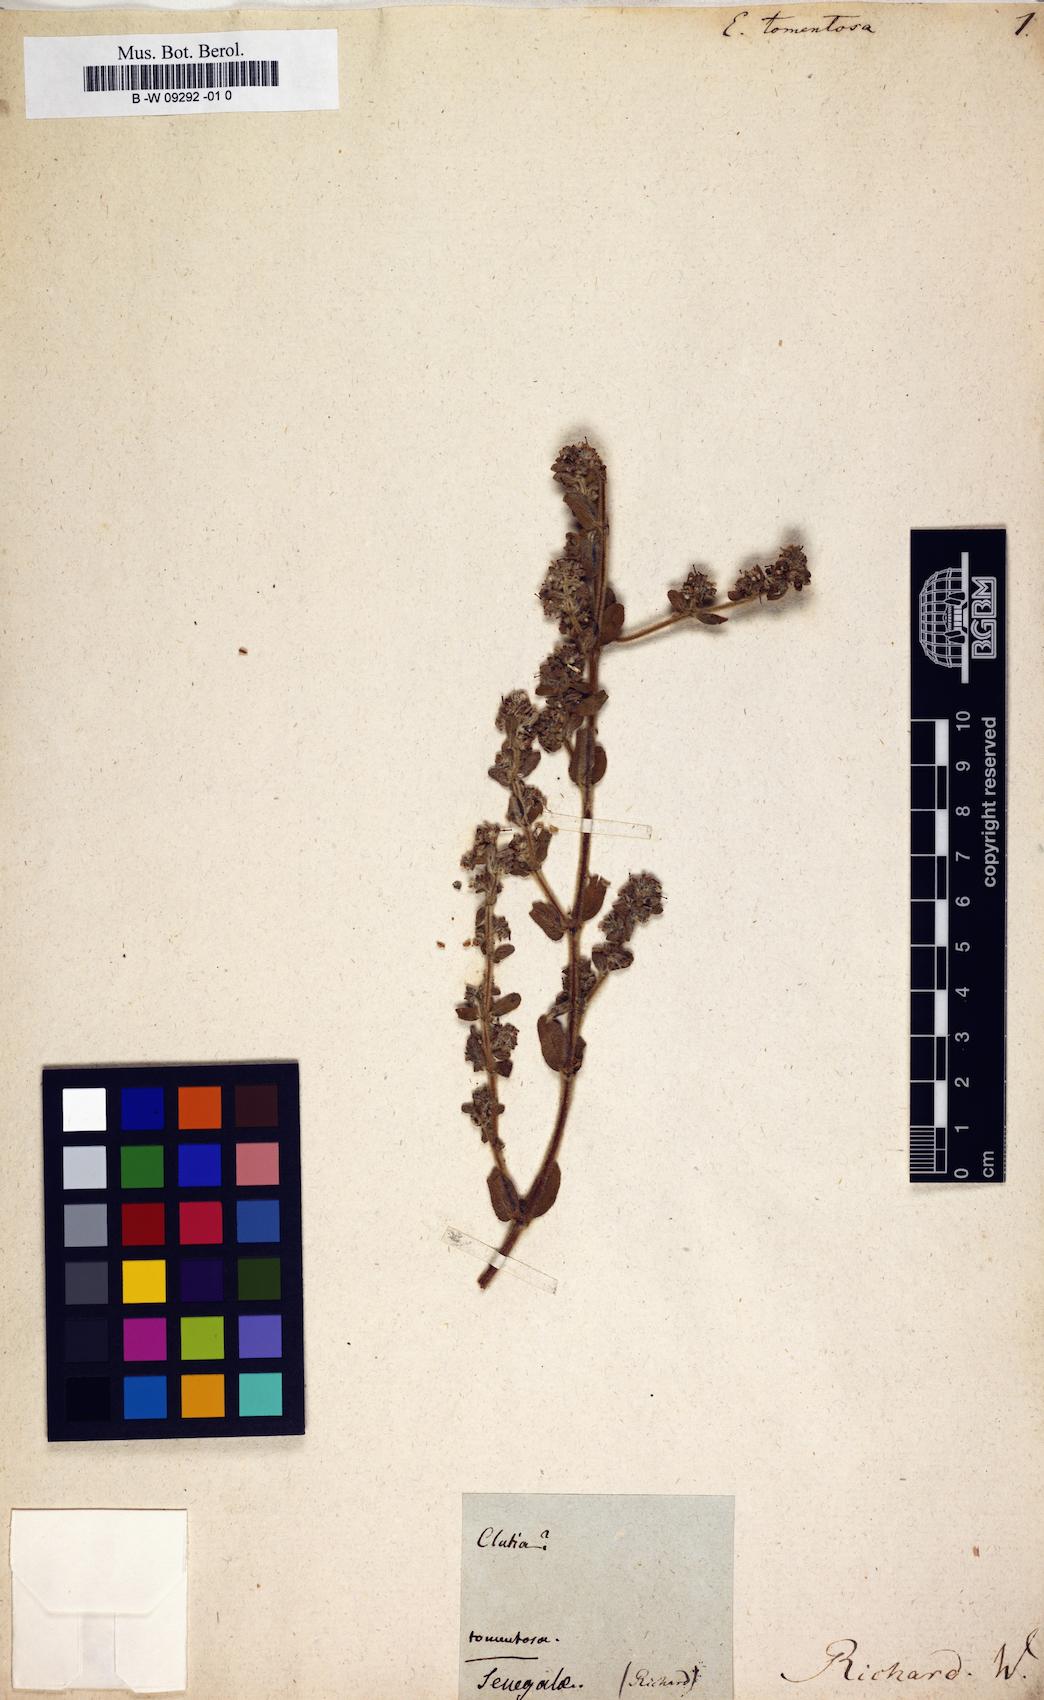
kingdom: Plantae
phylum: Tracheophyta
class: Magnoliopsida
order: Malpighiales
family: Euphorbiaceae
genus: Euphorbia
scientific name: Euphorbia scordiifolia
